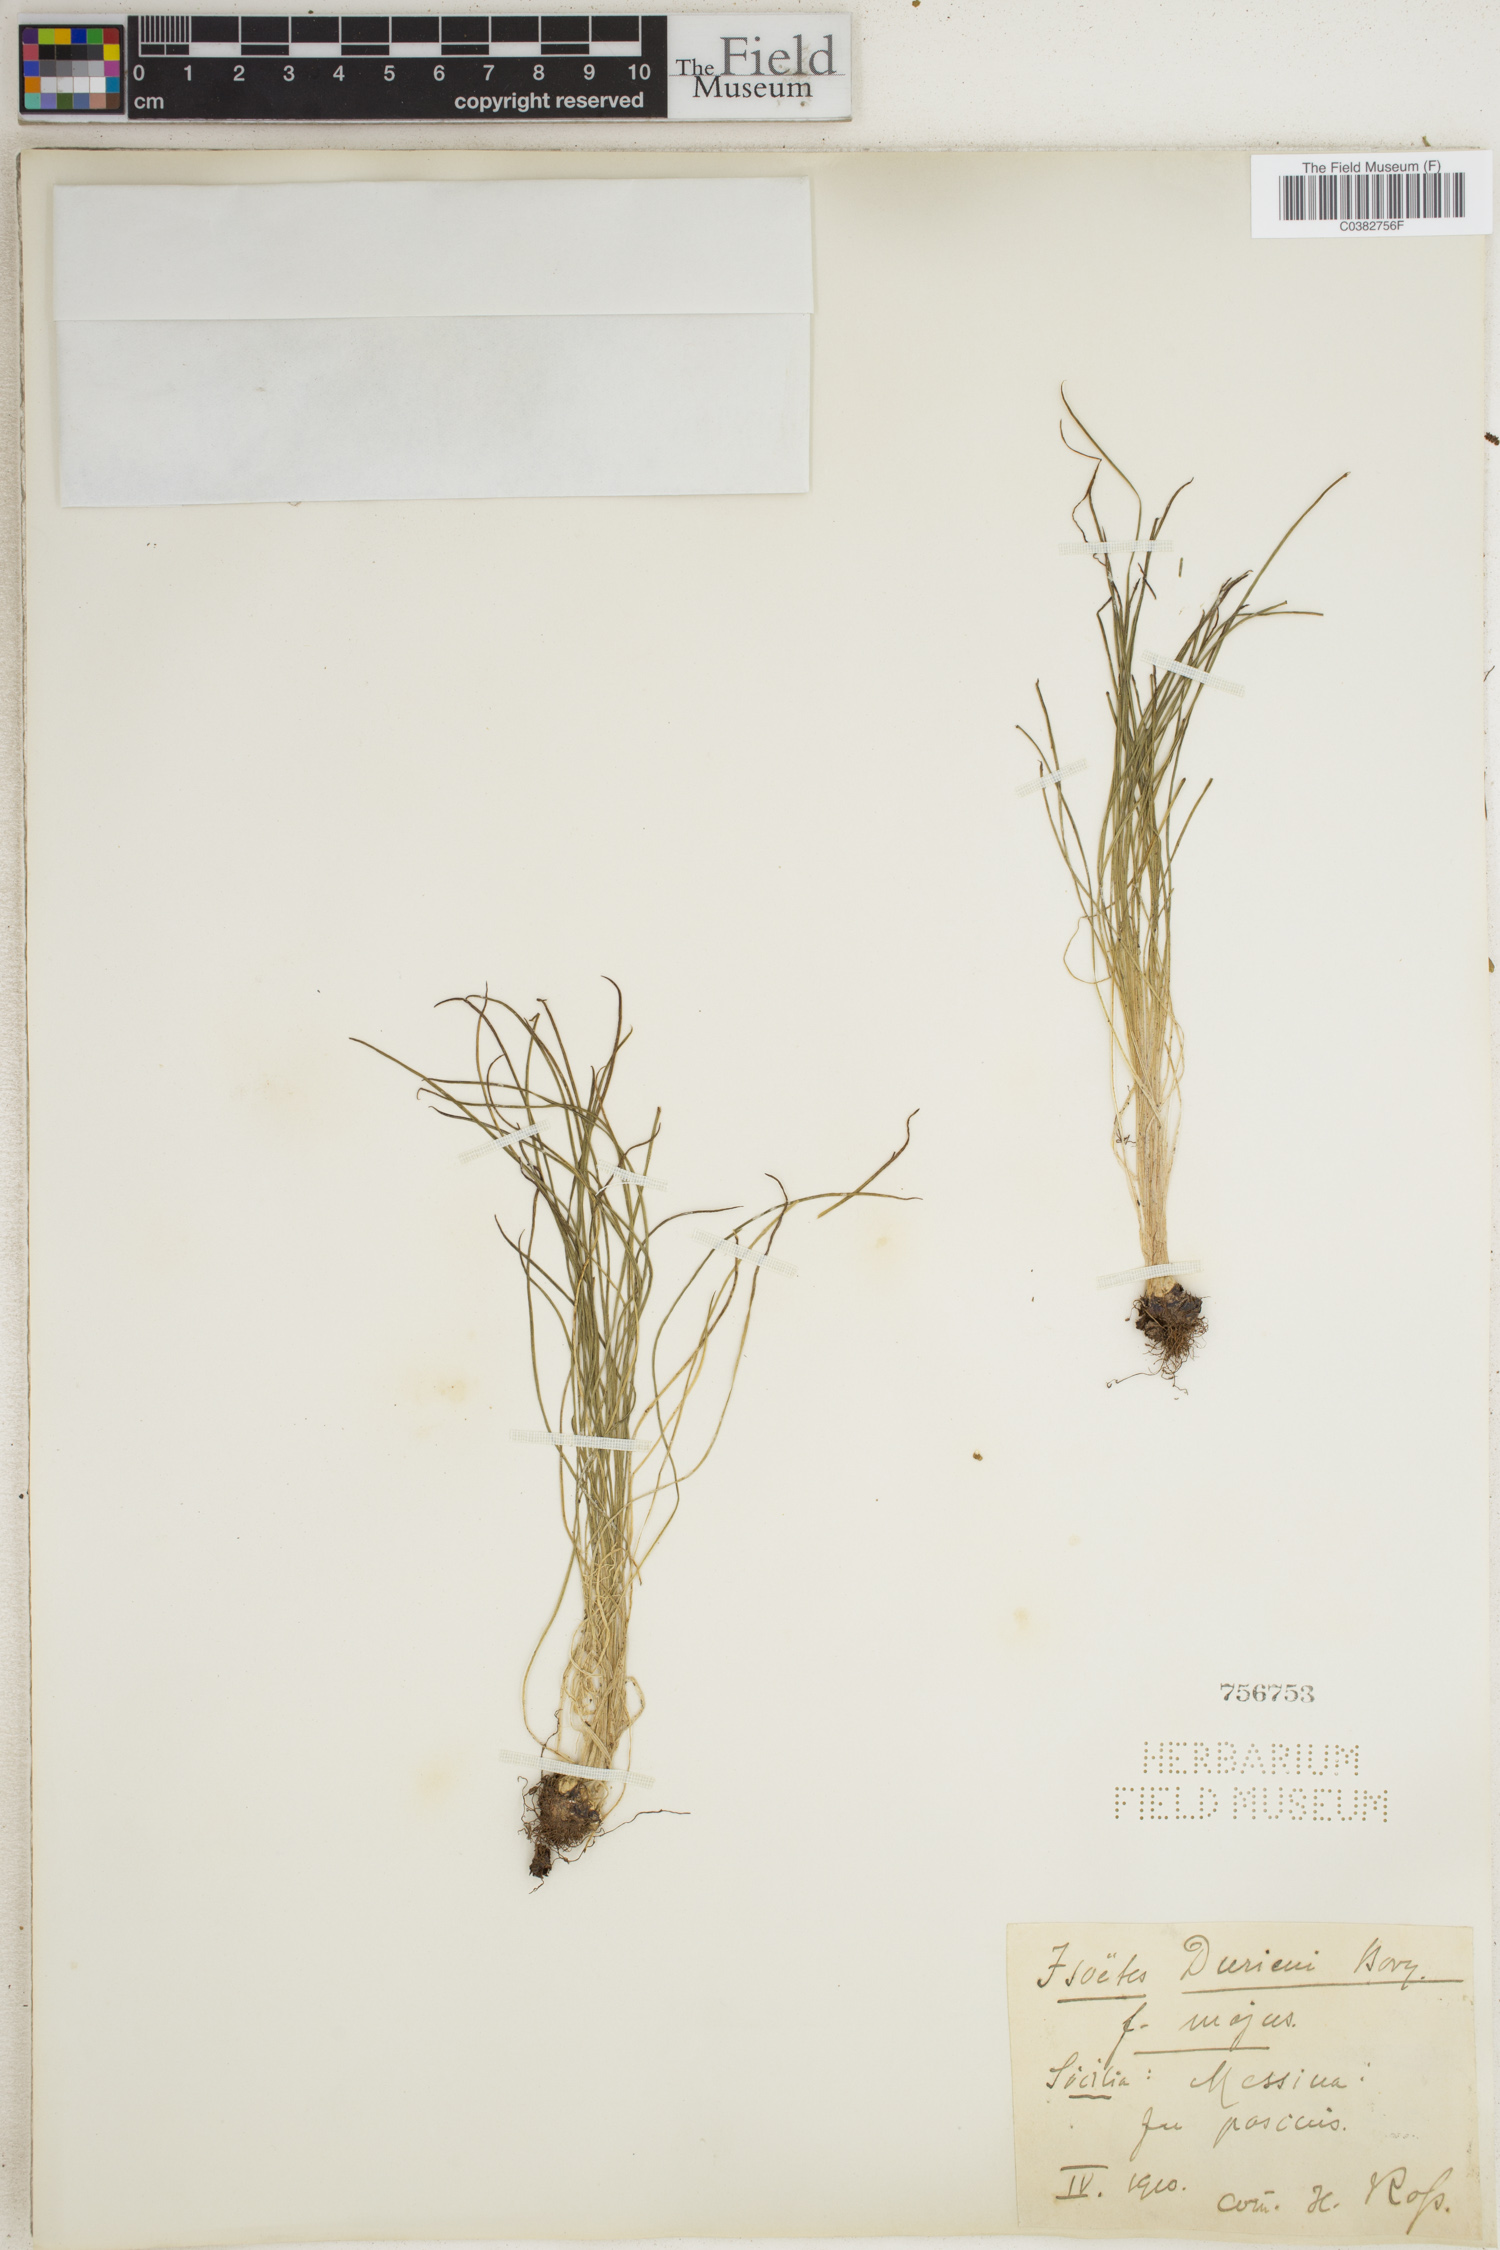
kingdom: Plantae
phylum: Tracheophyta
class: Lycopodiopsida
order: Isoetales
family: Isoetaceae
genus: Isoetes
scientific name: Isoetes duriei
